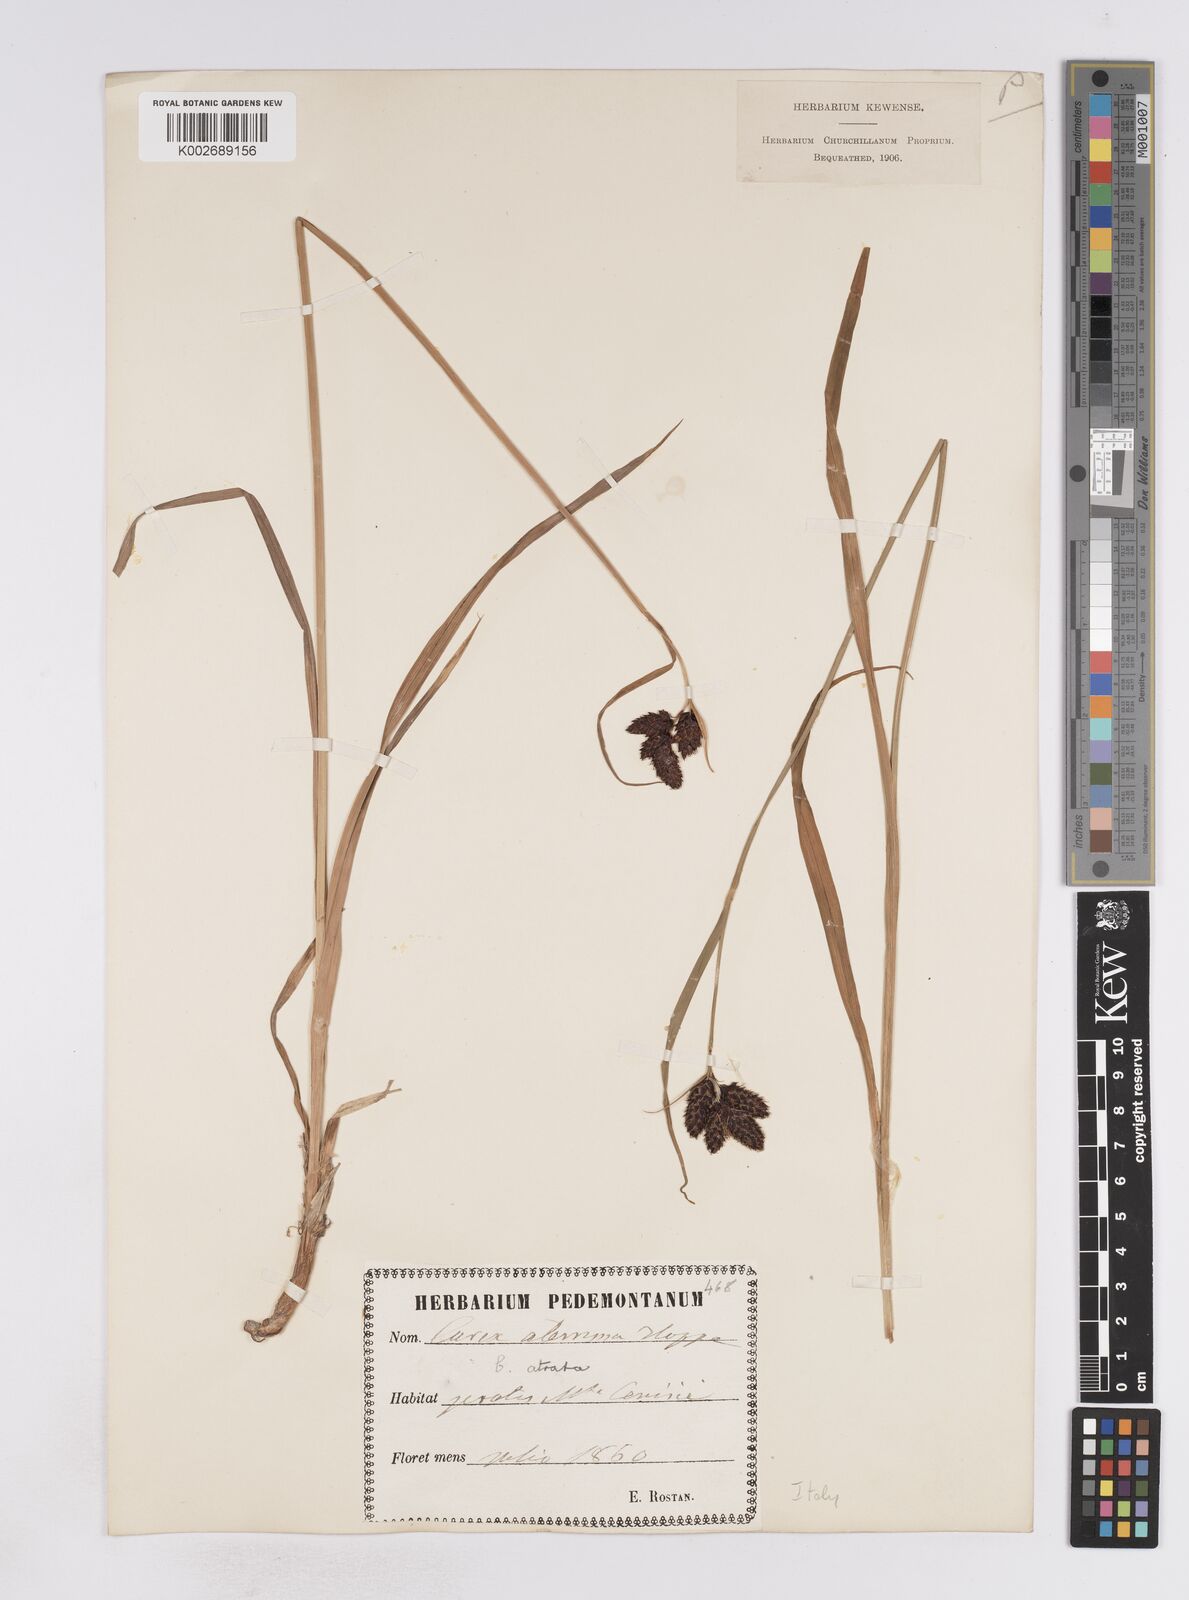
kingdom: Plantae
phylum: Tracheophyta
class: Liliopsida
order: Poales
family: Cyperaceae
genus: Carex
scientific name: Carex aterrima
